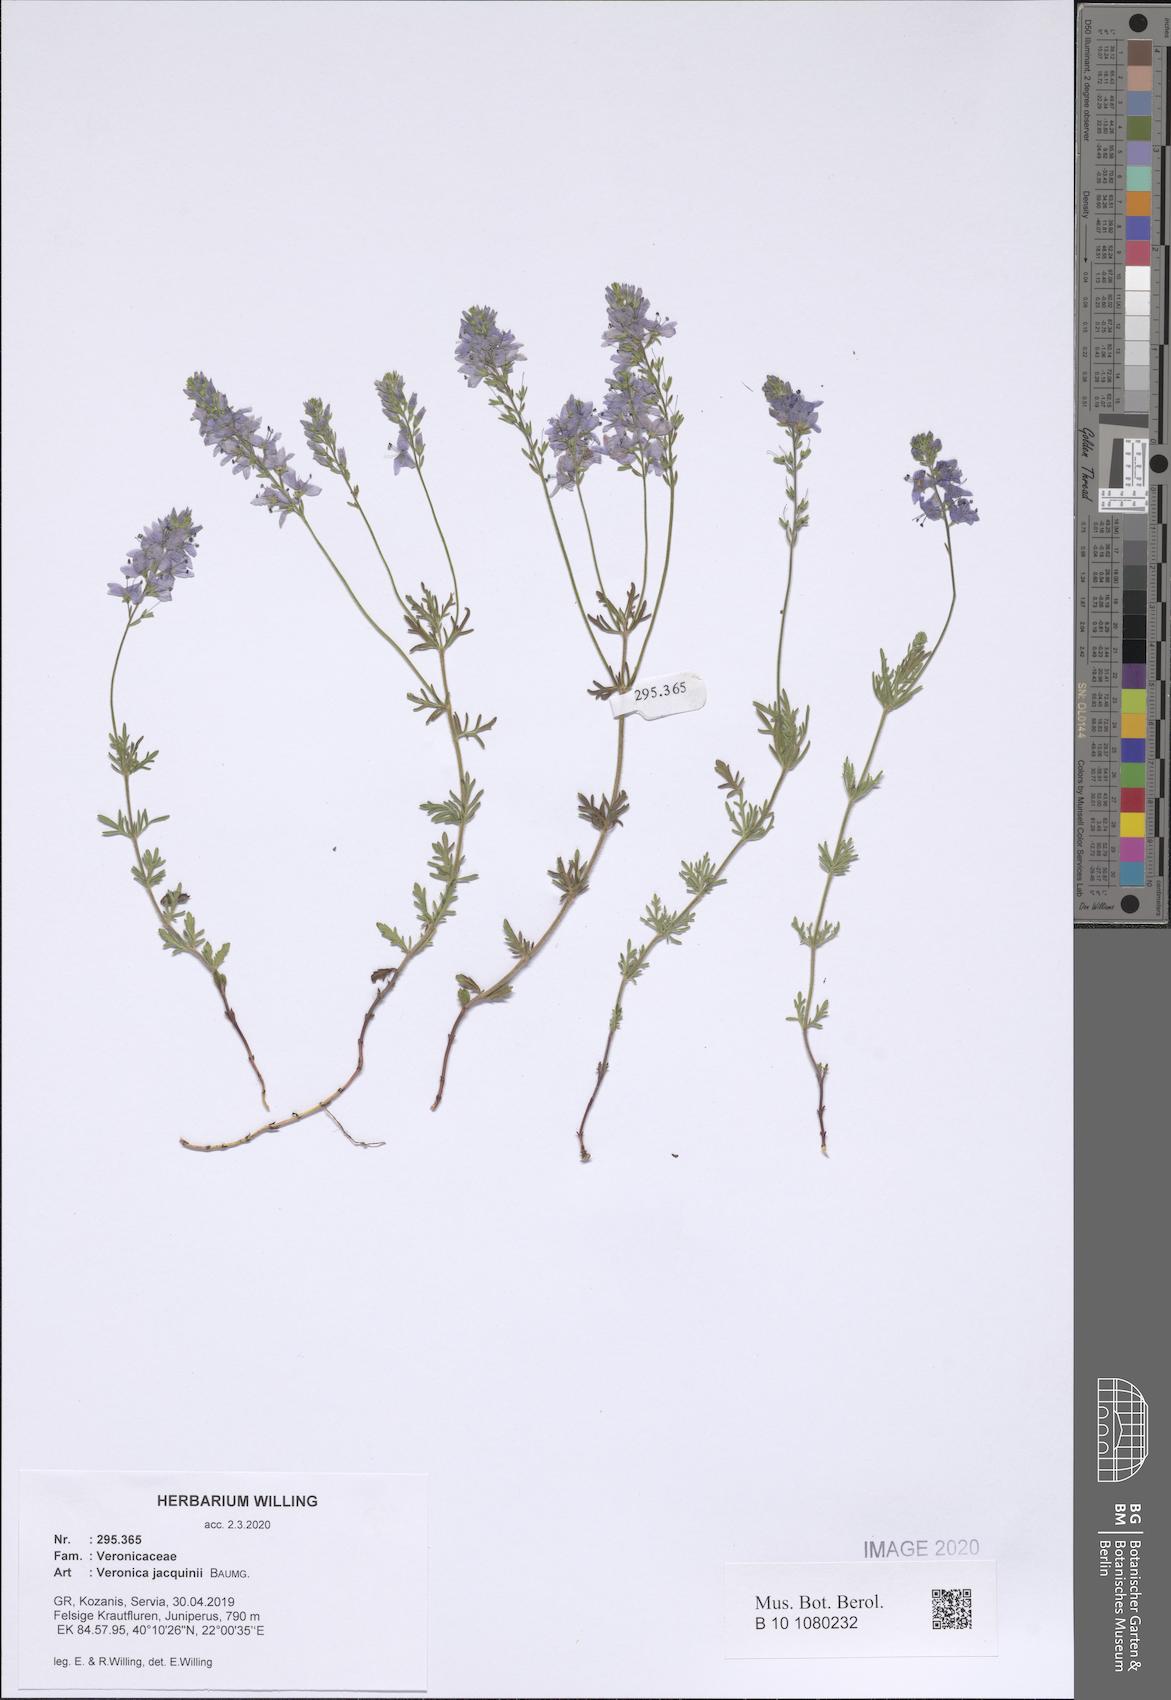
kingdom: Plantae
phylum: Tracheophyta
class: Magnoliopsida
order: Lamiales
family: Plantaginaceae
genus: Veronica
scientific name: Veronica austriaca
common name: Large speedwell
